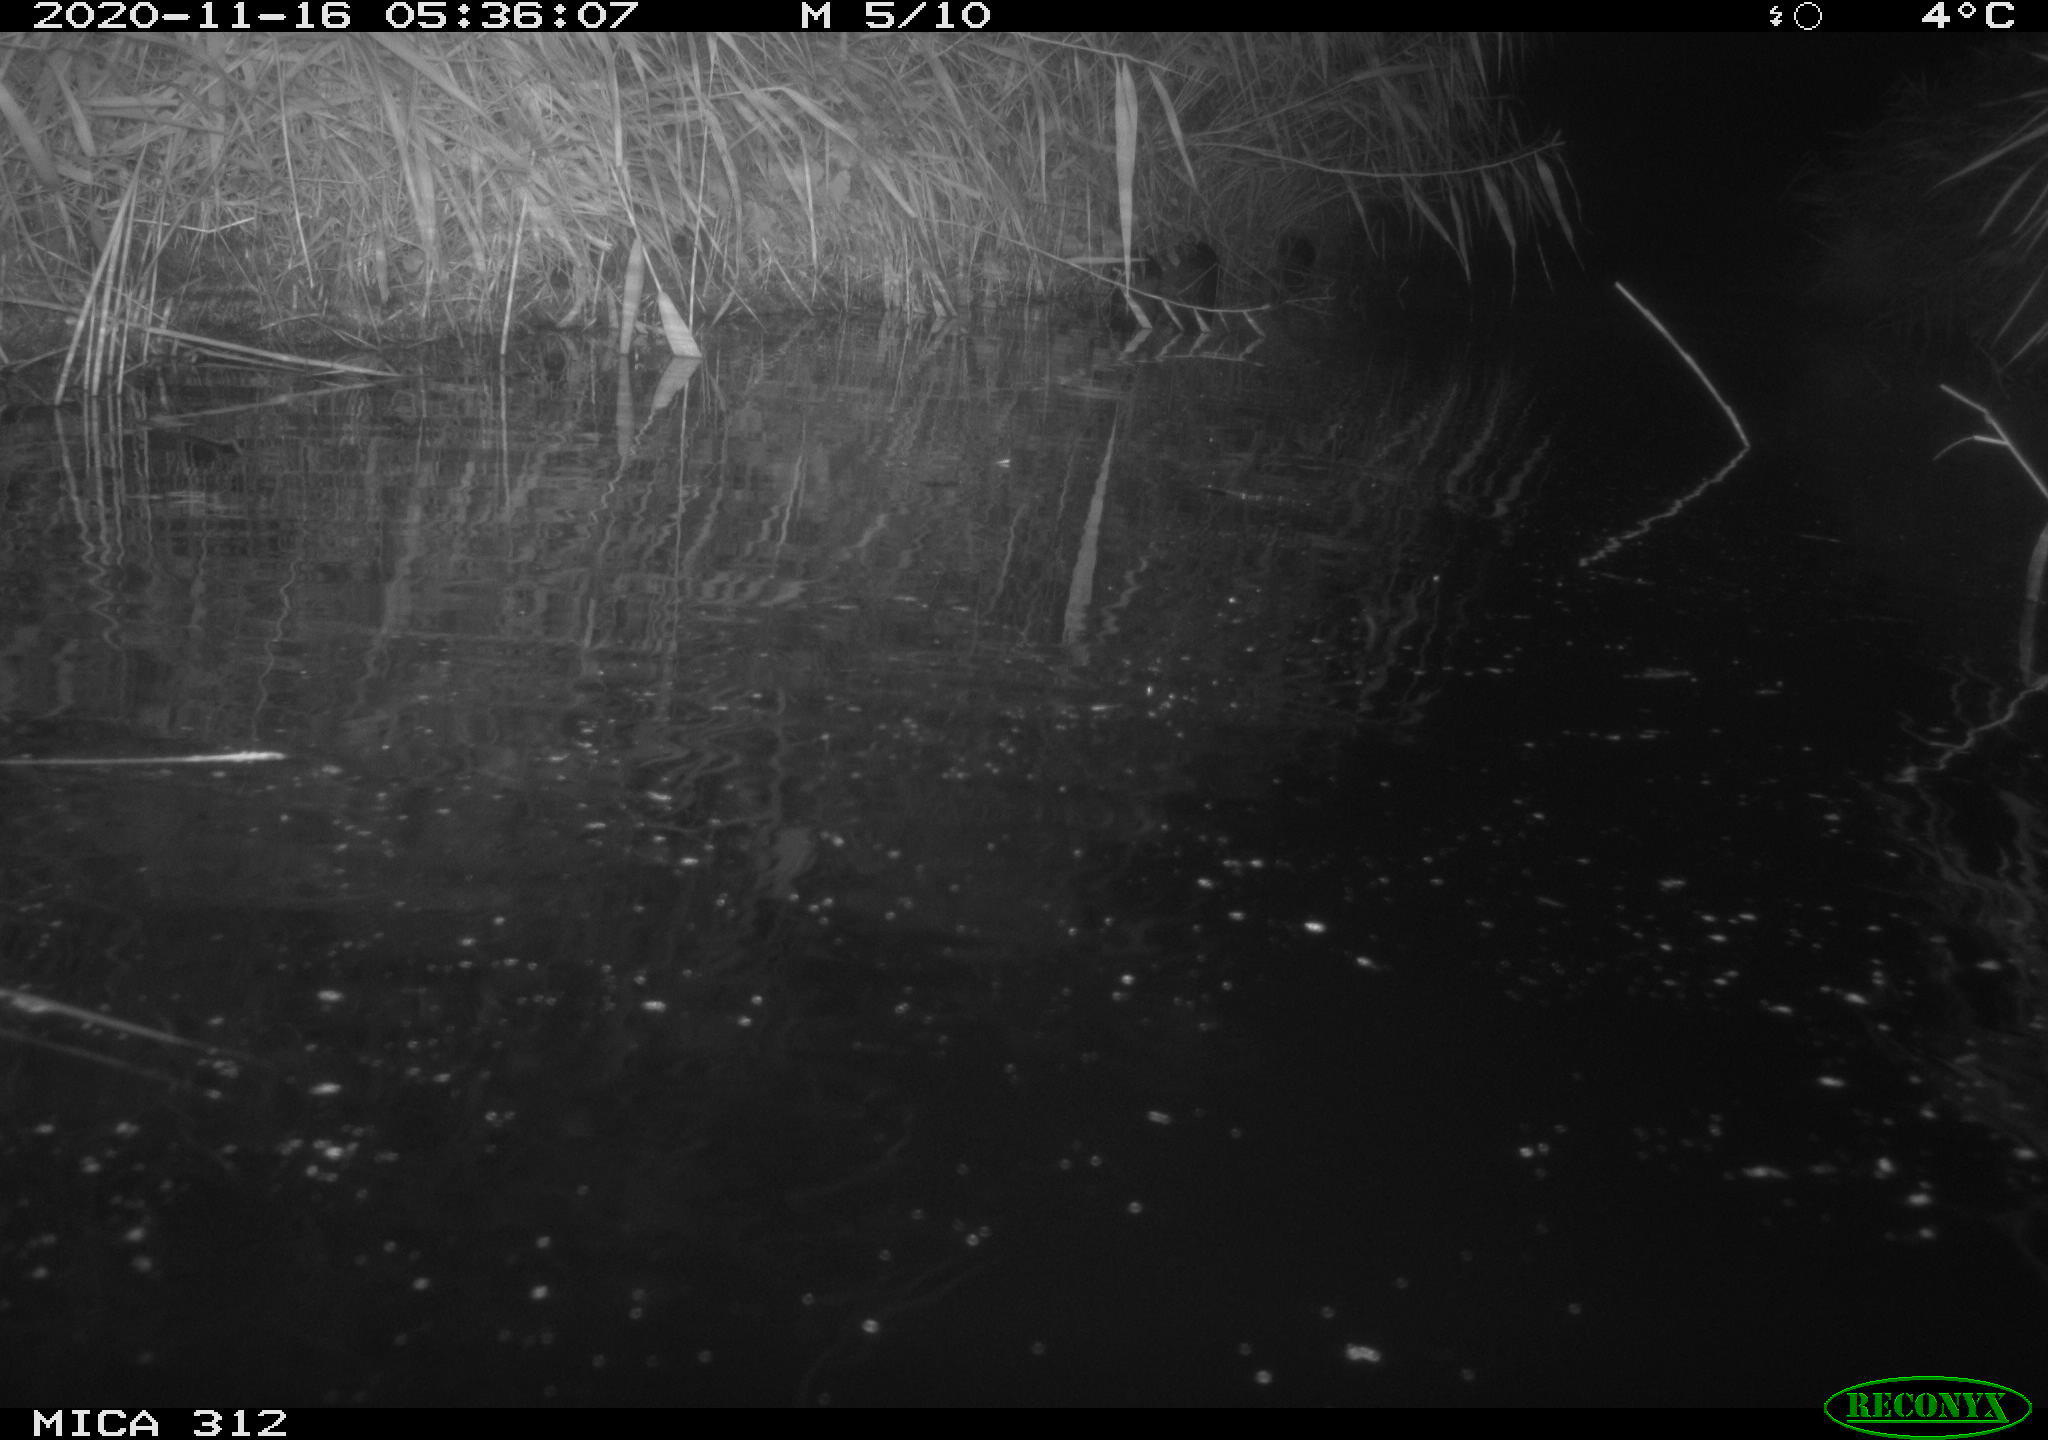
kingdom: Animalia
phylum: Chordata
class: Mammalia
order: Rodentia
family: Muridae
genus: Rattus
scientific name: Rattus norvegicus
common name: Brown rat
